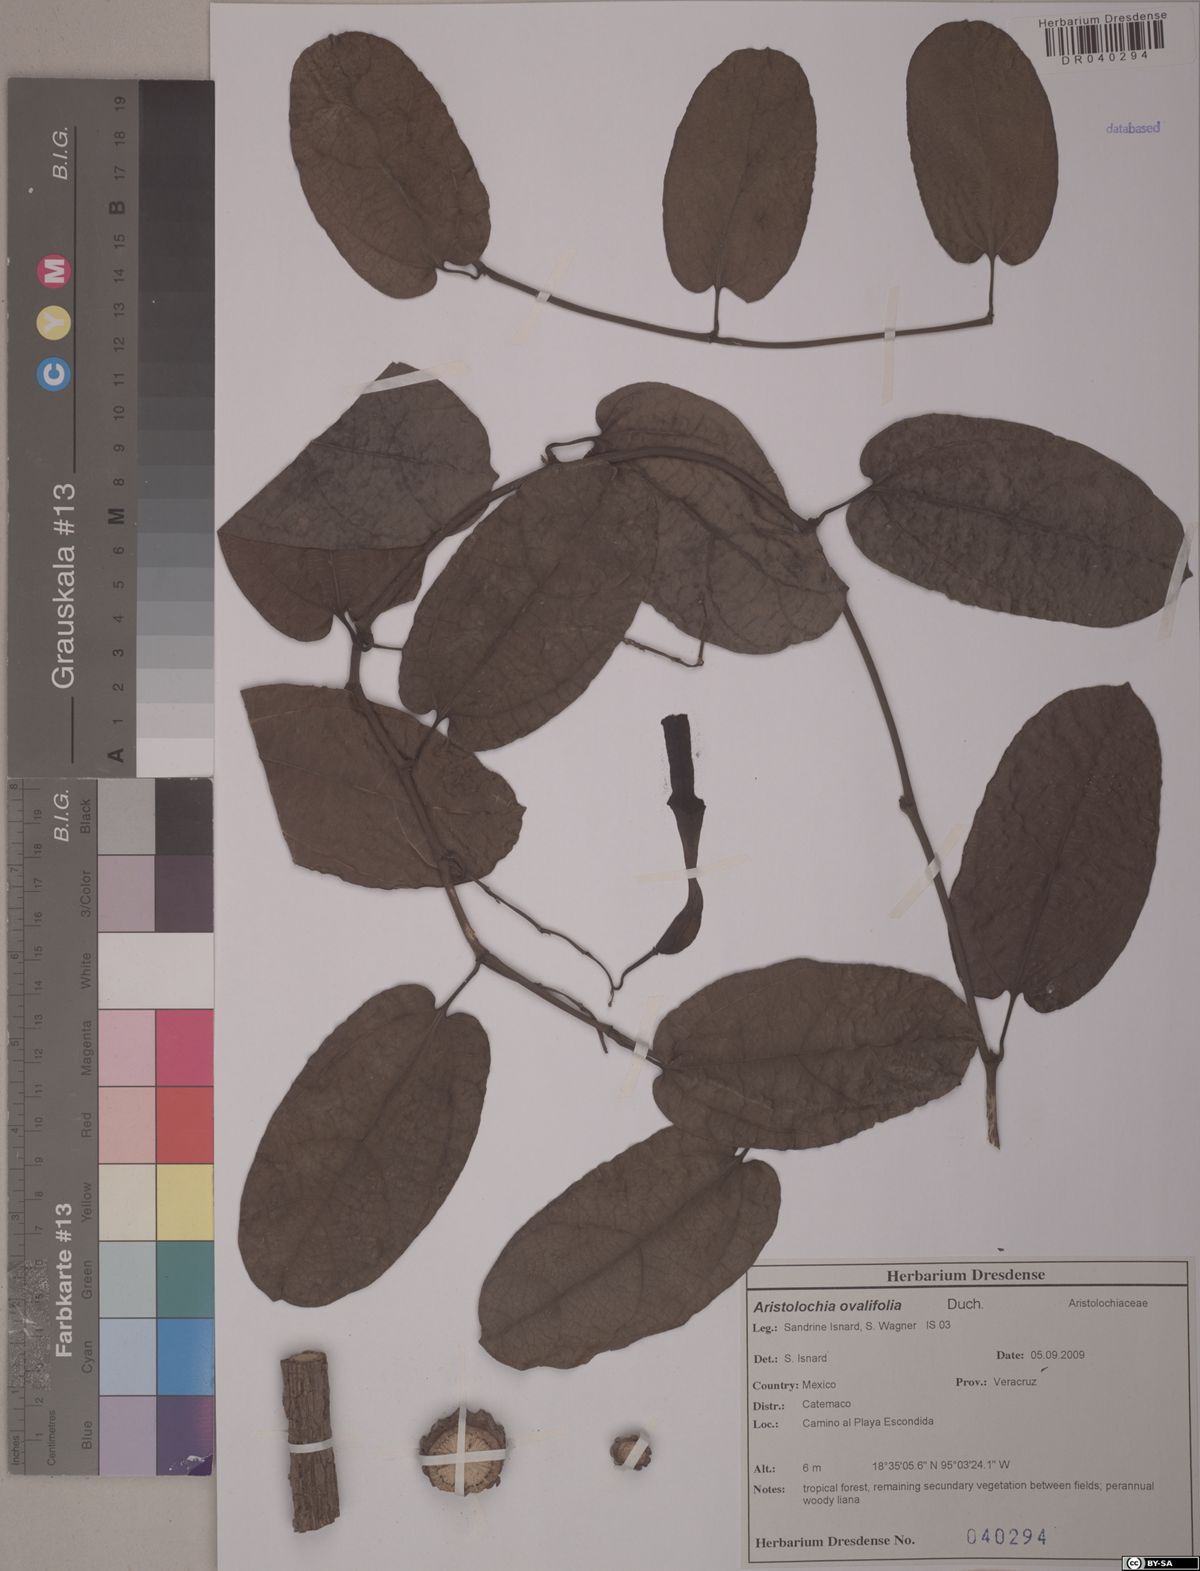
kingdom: Plantae
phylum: Tracheophyta
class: Magnoliopsida
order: Piperales
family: Aristolochiaceae
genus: Aristolochia
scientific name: Aristolochia ovalifolia
